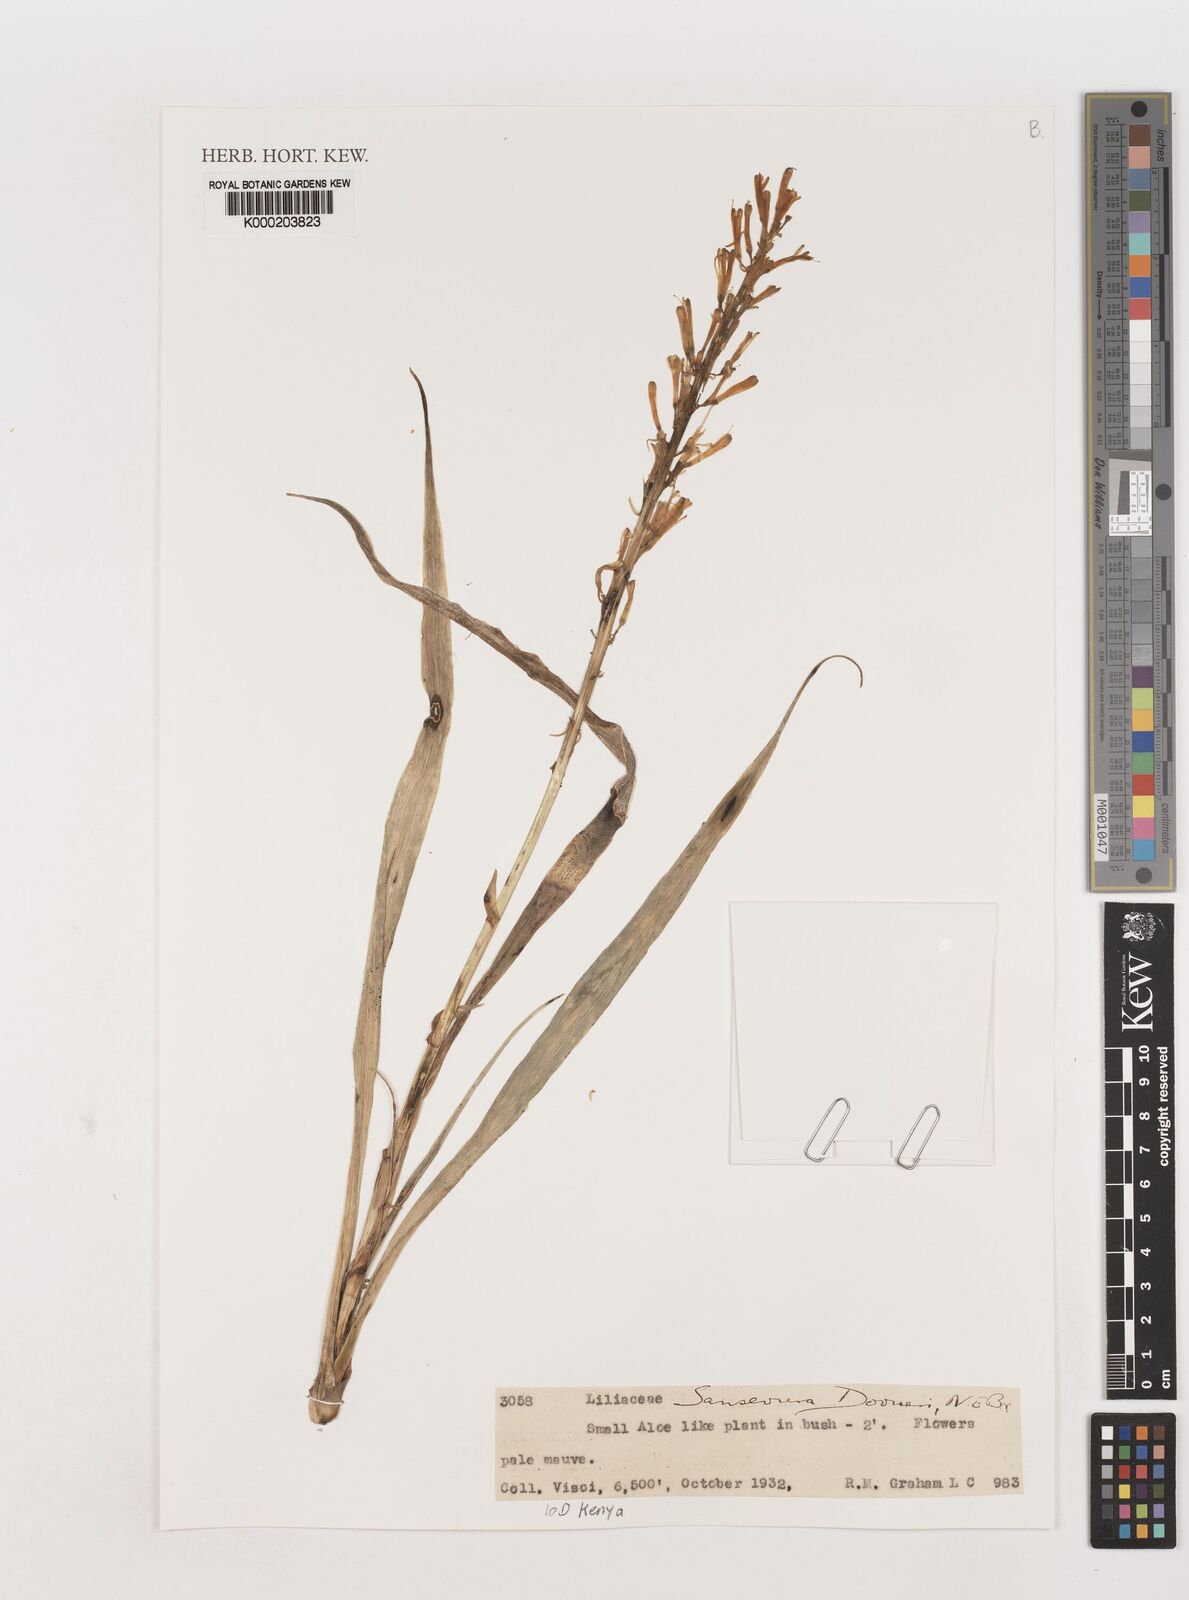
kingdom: Plantae
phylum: Tracheophyta
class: Liliopsida
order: Asparagales
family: Asparagaceae
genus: Dracaena
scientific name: Dracaena parva
